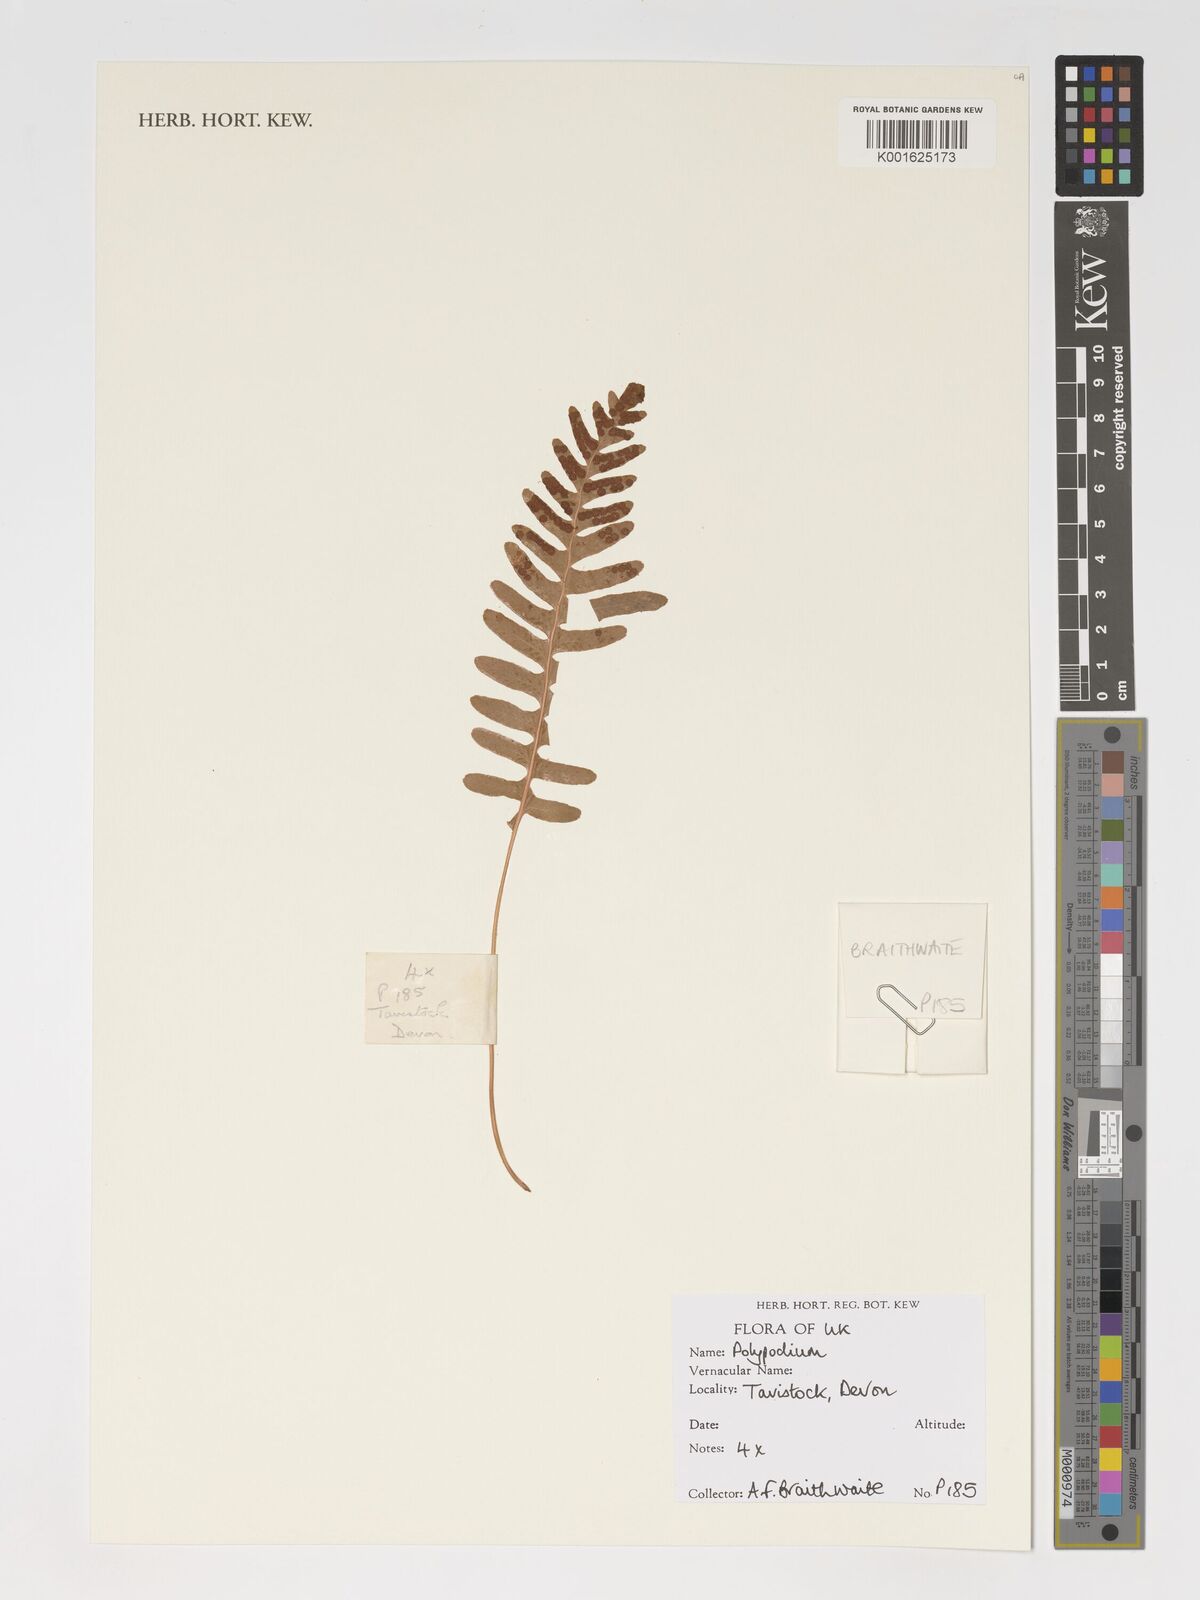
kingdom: Plantae
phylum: Tracheophyta
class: Polypodiopsida
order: Polypodiales
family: Polypodiaceae
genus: Polypodium
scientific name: Polypodium
